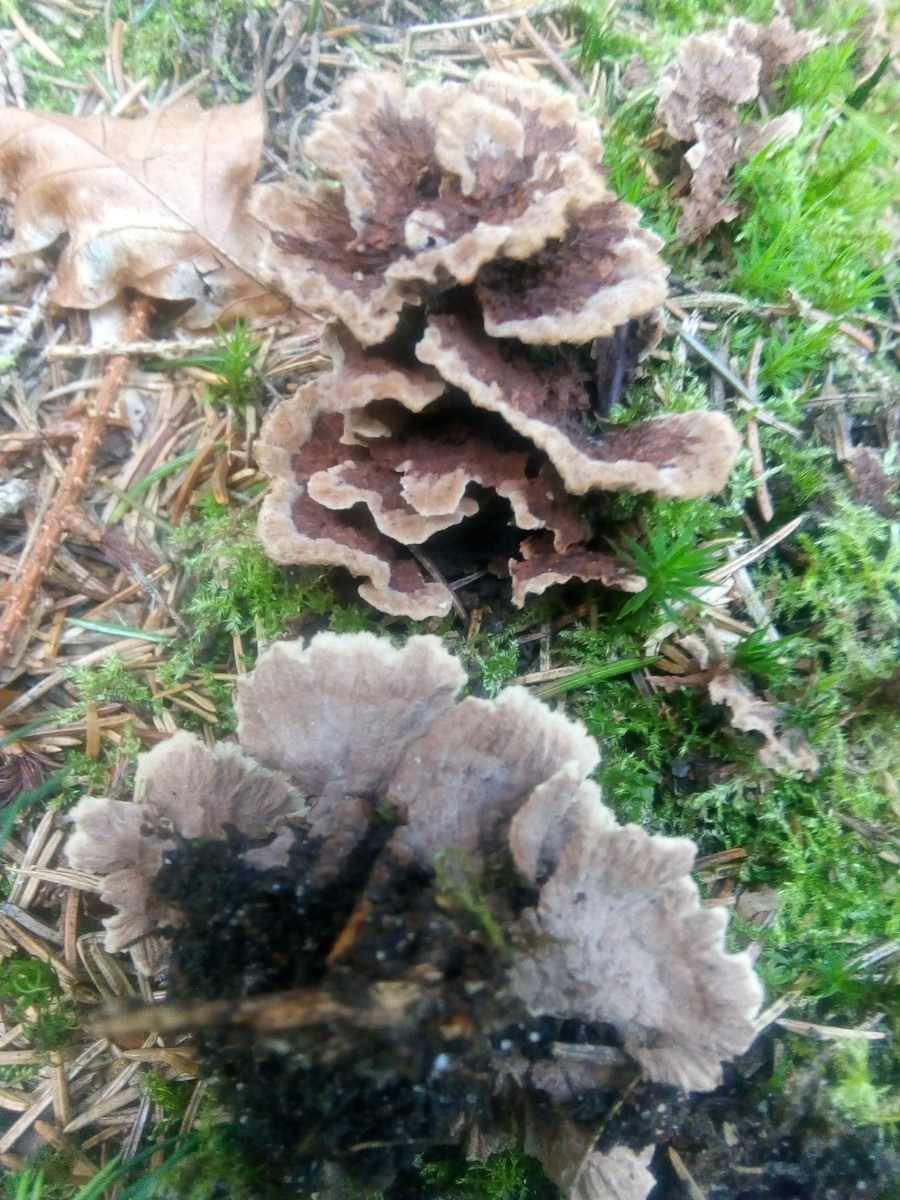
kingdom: Fungi
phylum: Basidiomycota
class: Agaricomycetes
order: Thelephorales
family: Thelephoraceae
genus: Thelephora
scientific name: Thelephora terrestris
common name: fliget frynsesvamp
